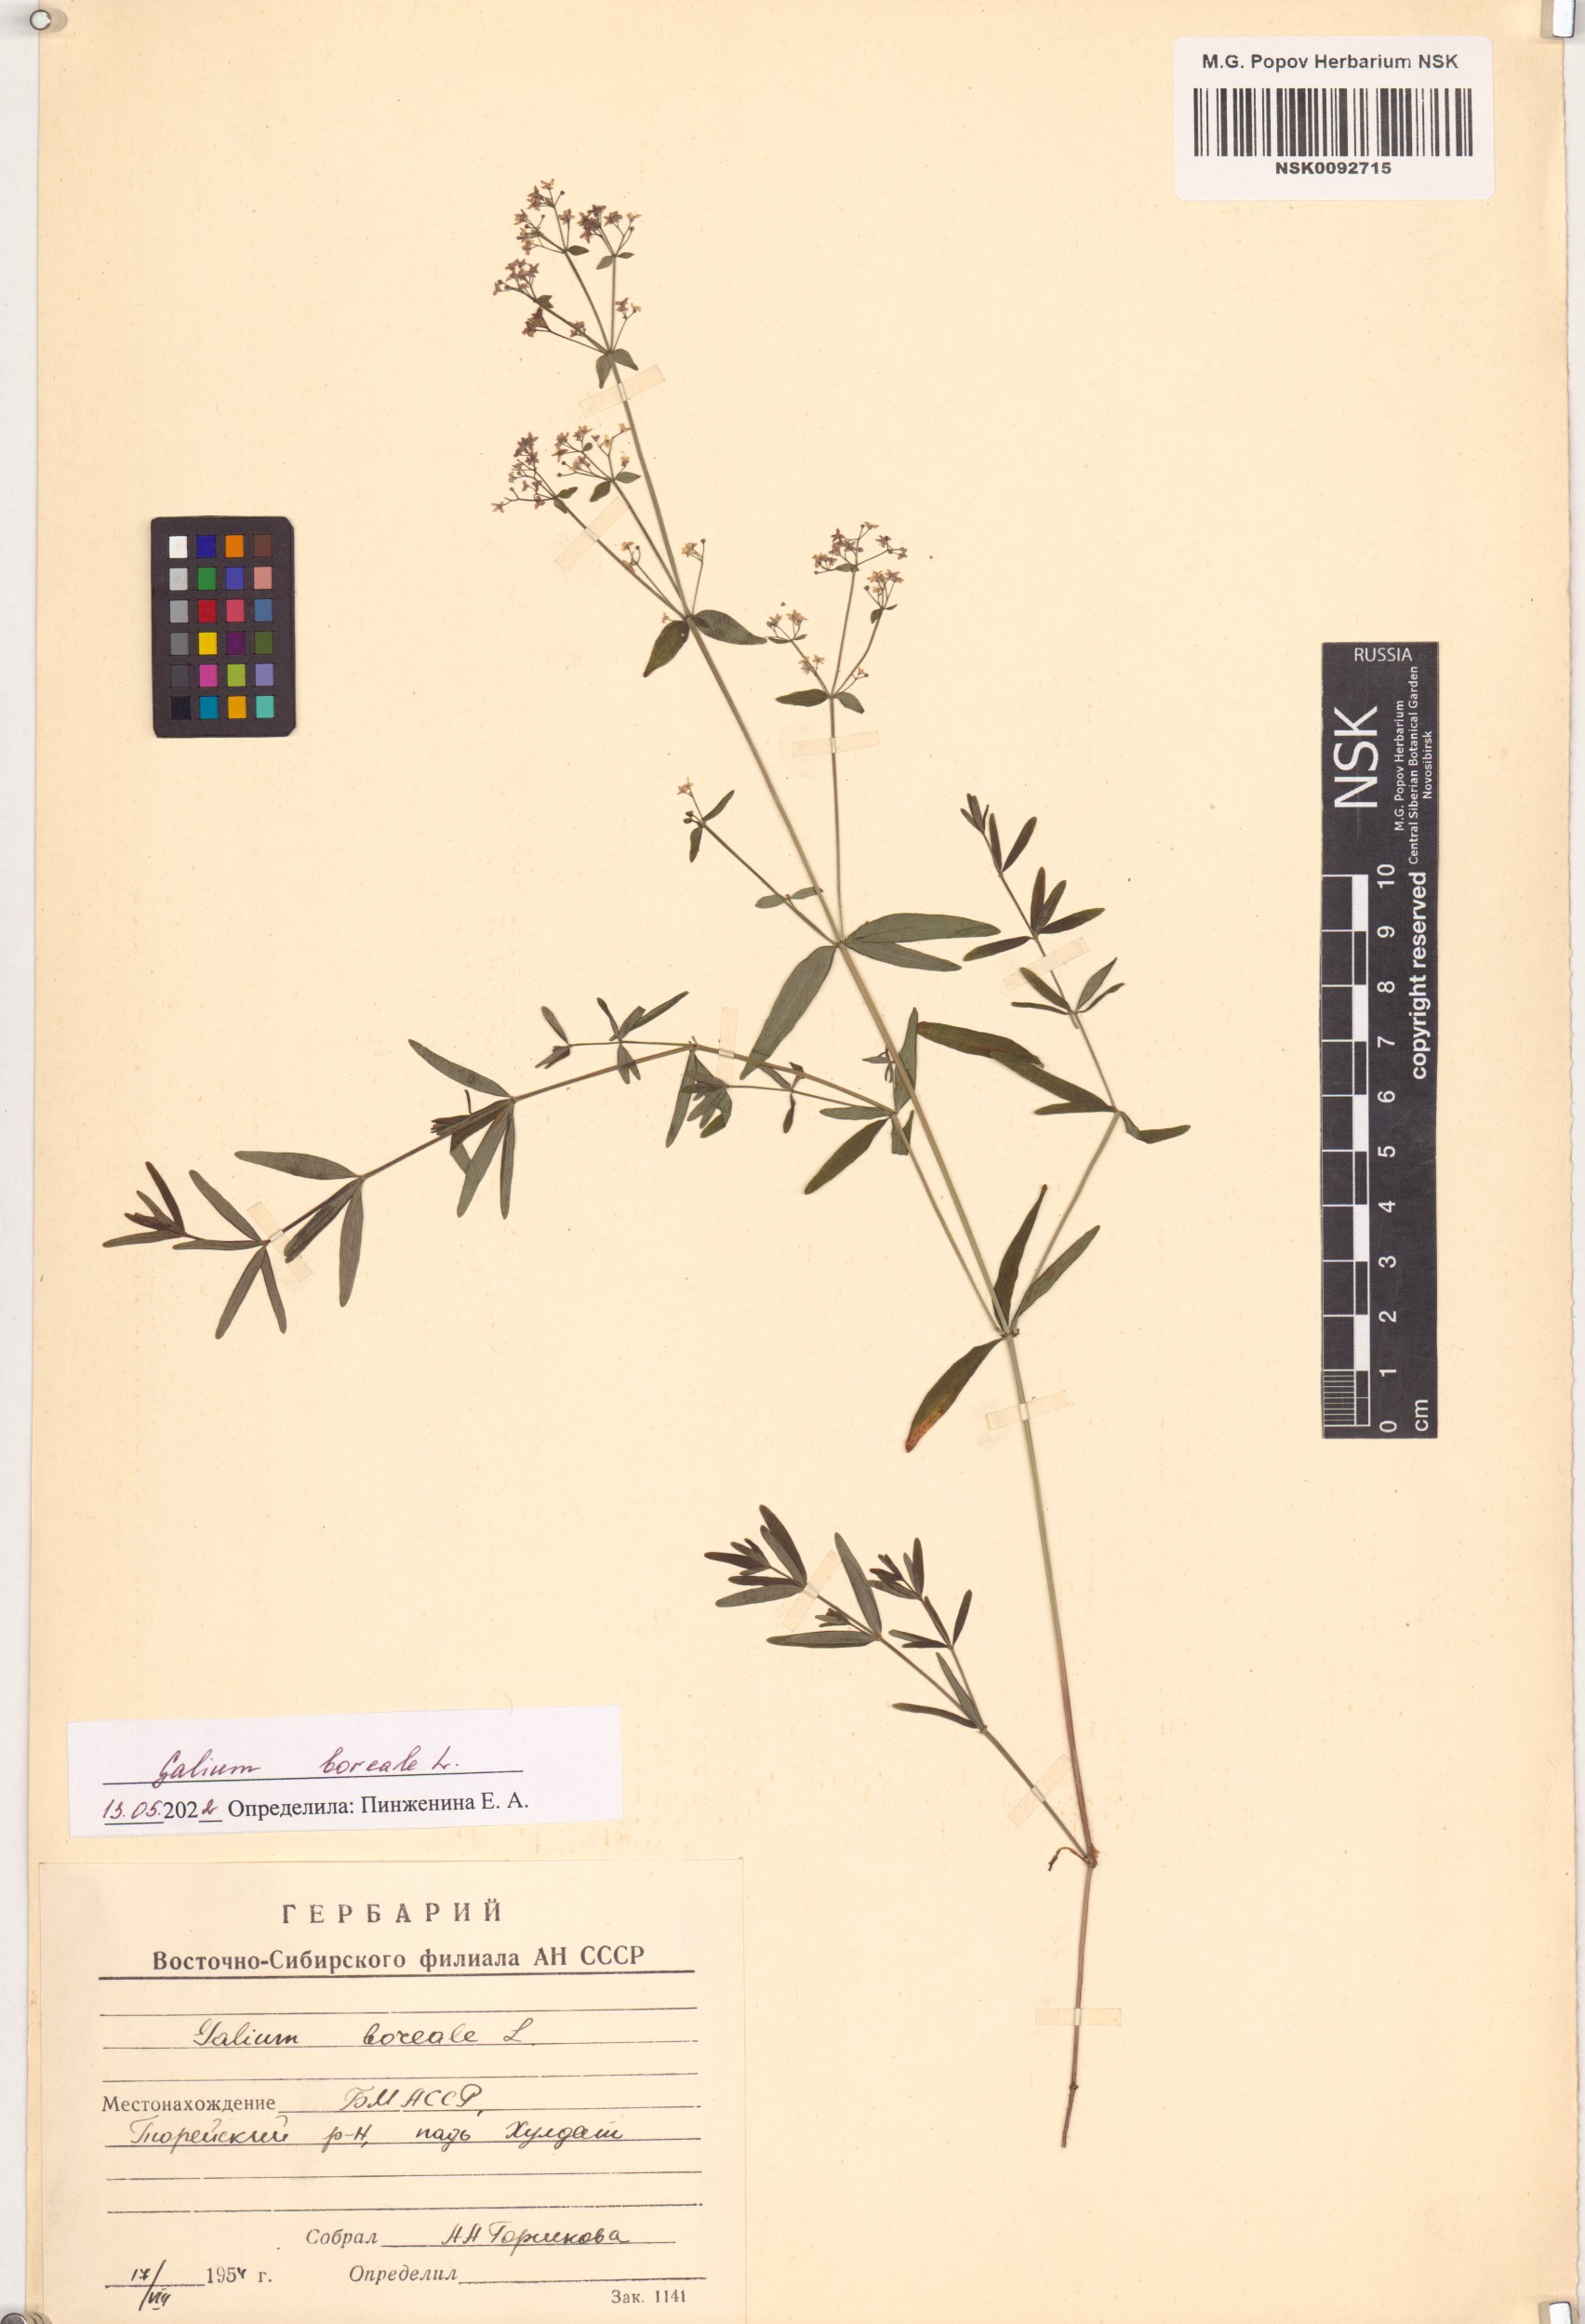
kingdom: Plantae
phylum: Tracheophyta
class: Magnoliopsida
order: Gentianales
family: Rubiaceae
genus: Galium
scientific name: Galium boreale
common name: Northern bedstraw
